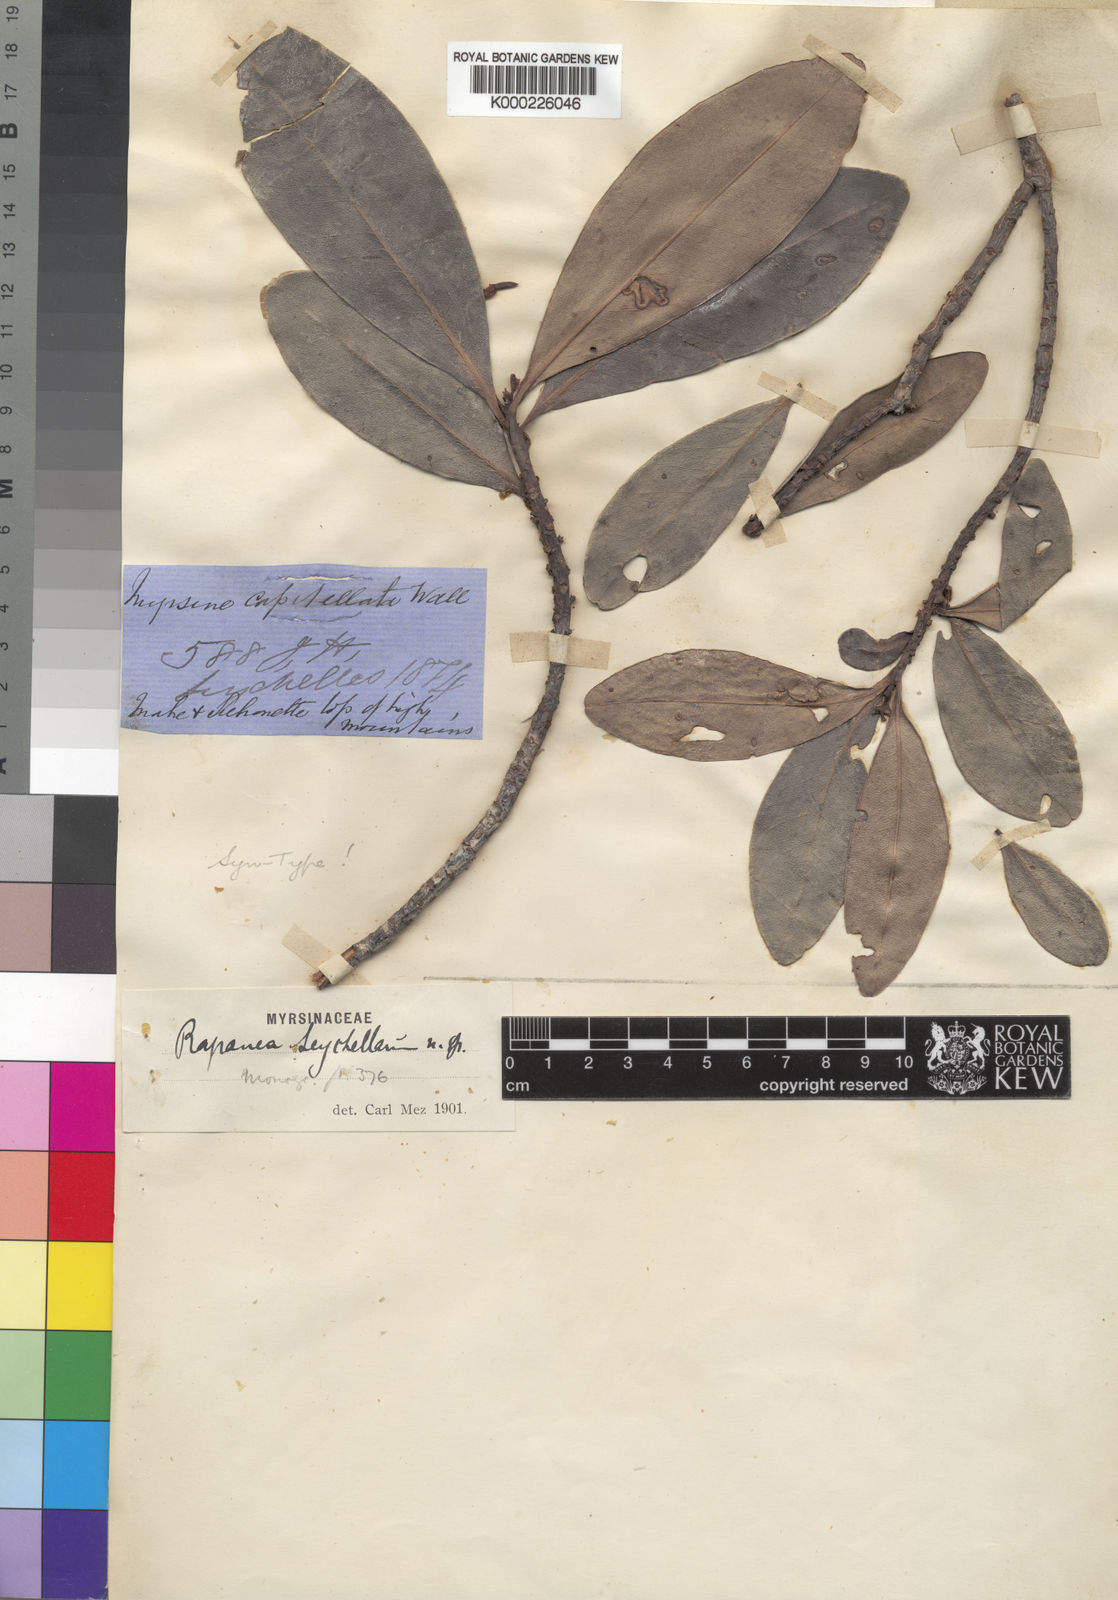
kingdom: Plantae
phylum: Tracheophyta
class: Magnoliopsida
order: Ericales
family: Primulaceae
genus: Myrsine
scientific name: Myrsine seychellarum
